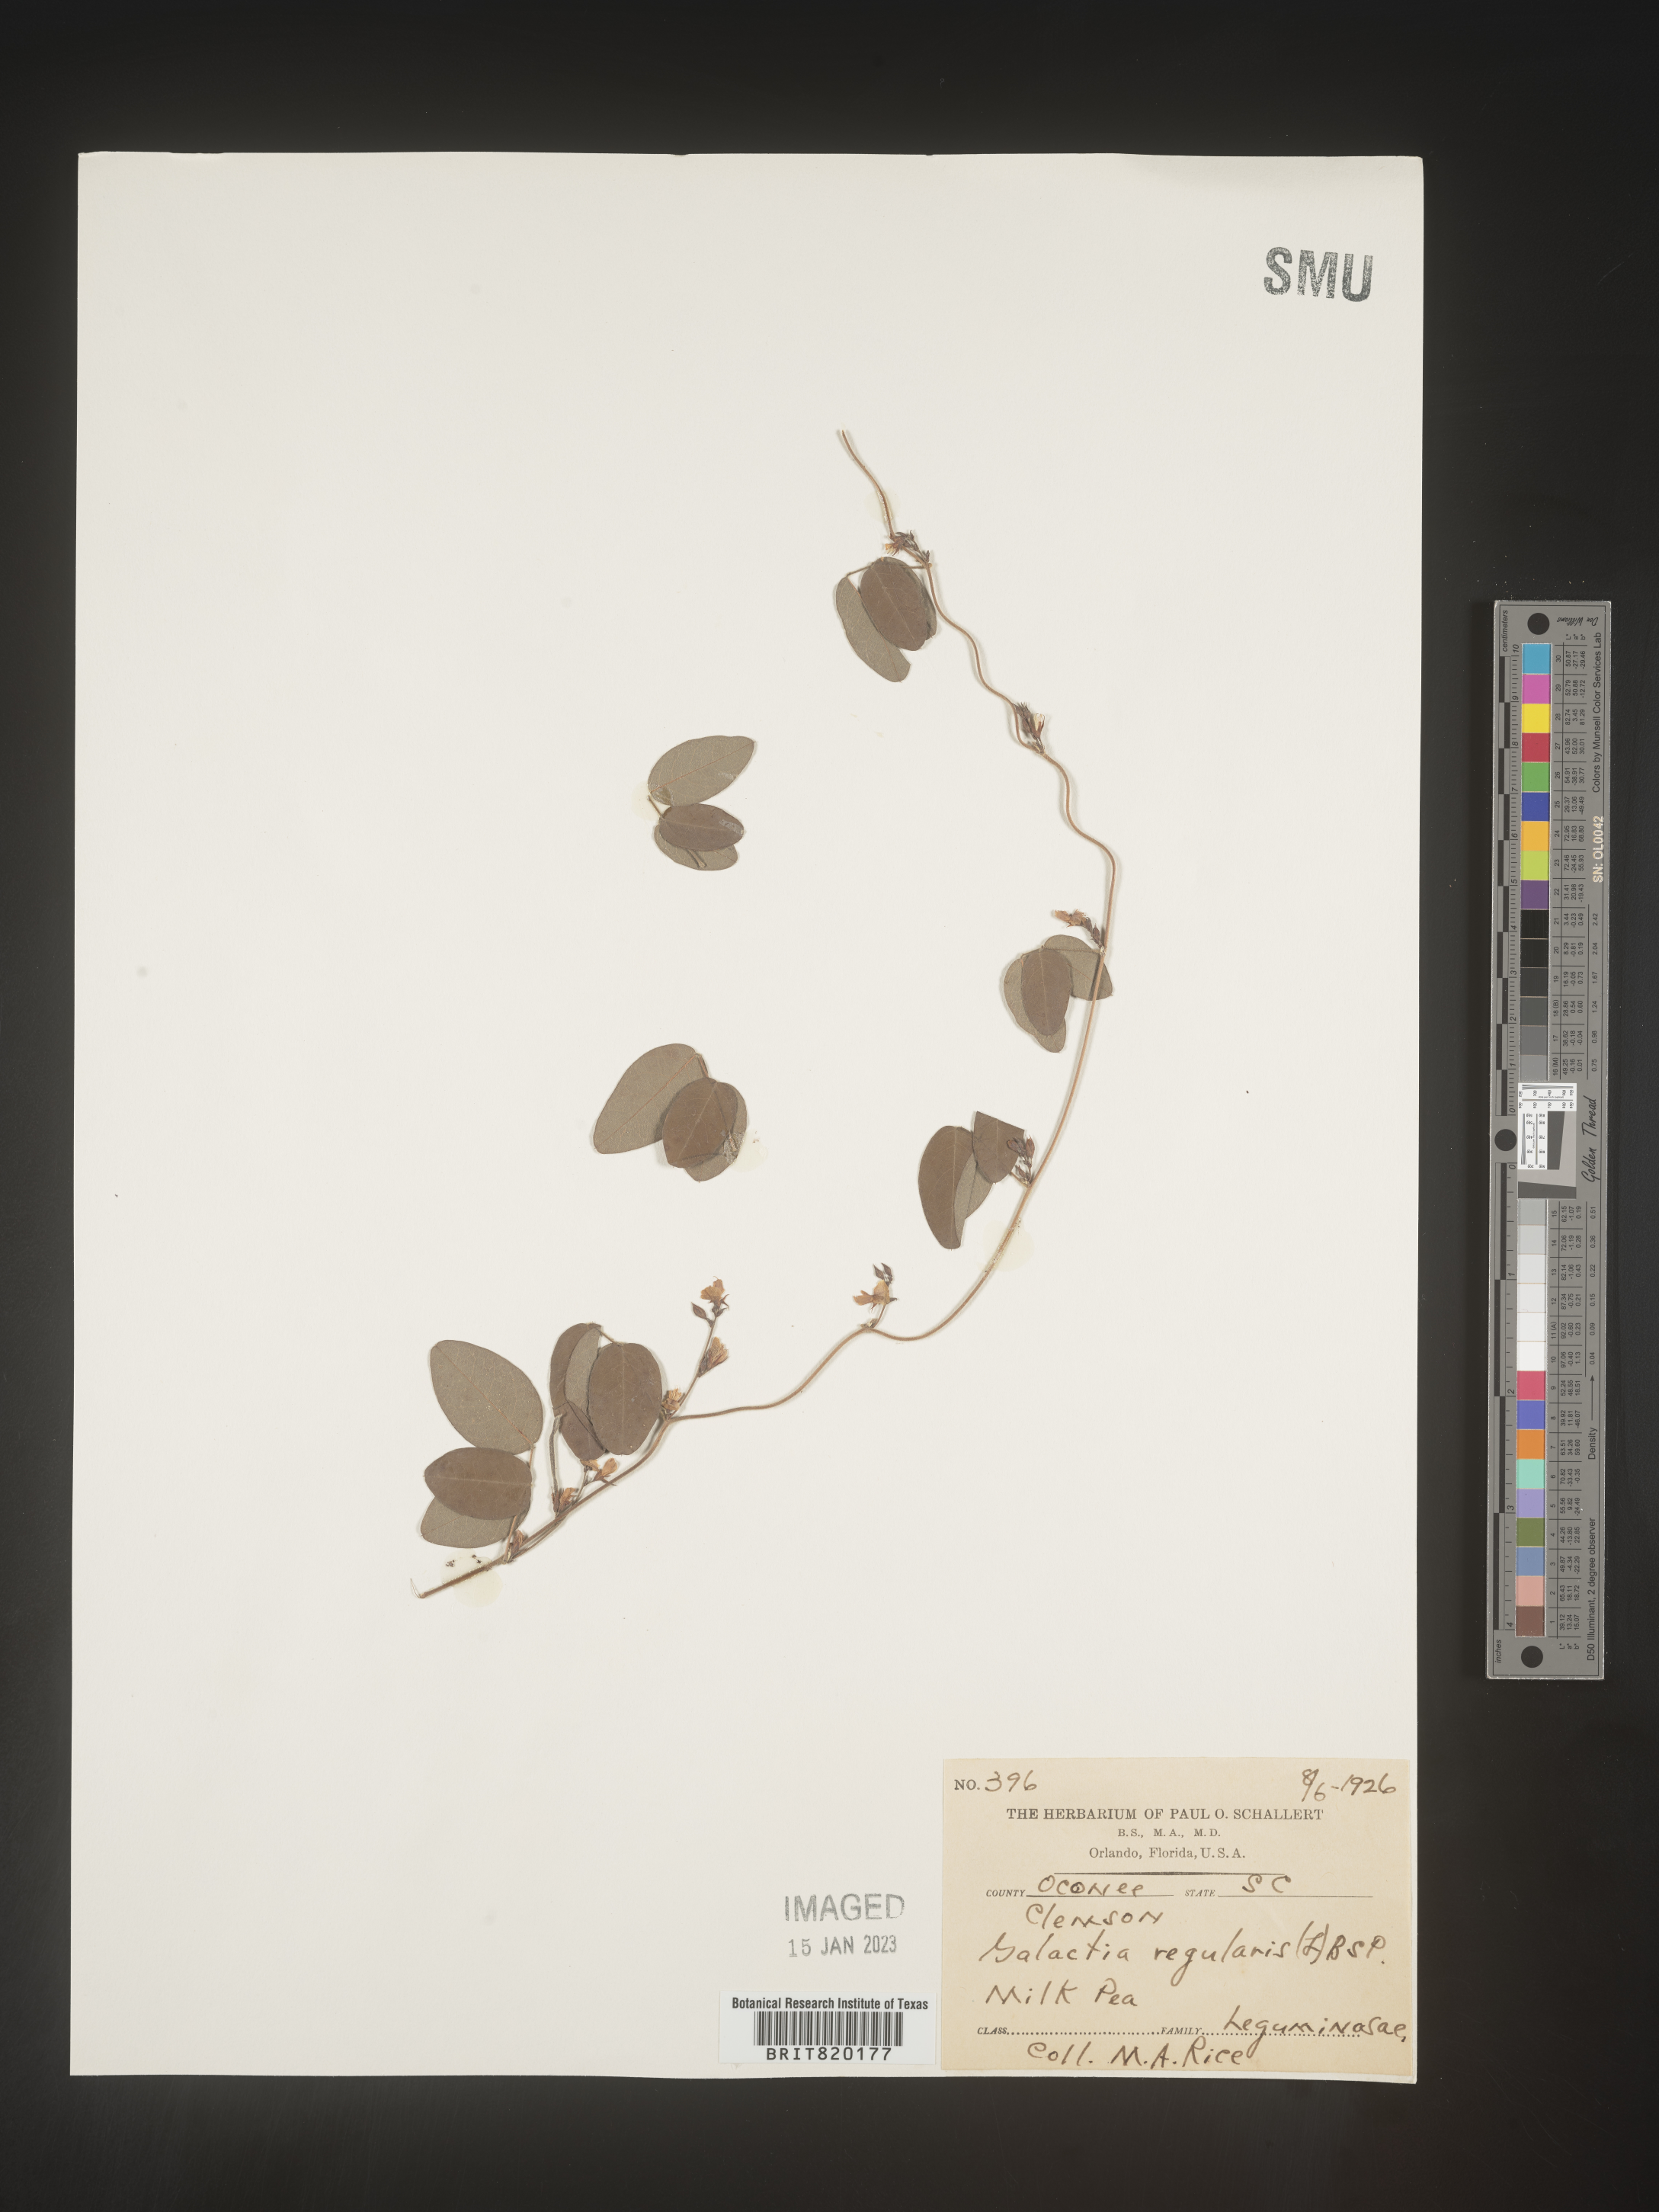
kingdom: Plantae
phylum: Tracheophyta
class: Magnoliopsida
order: Fabales
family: Fabaceae
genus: Galactia
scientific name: Galactia volubilis
